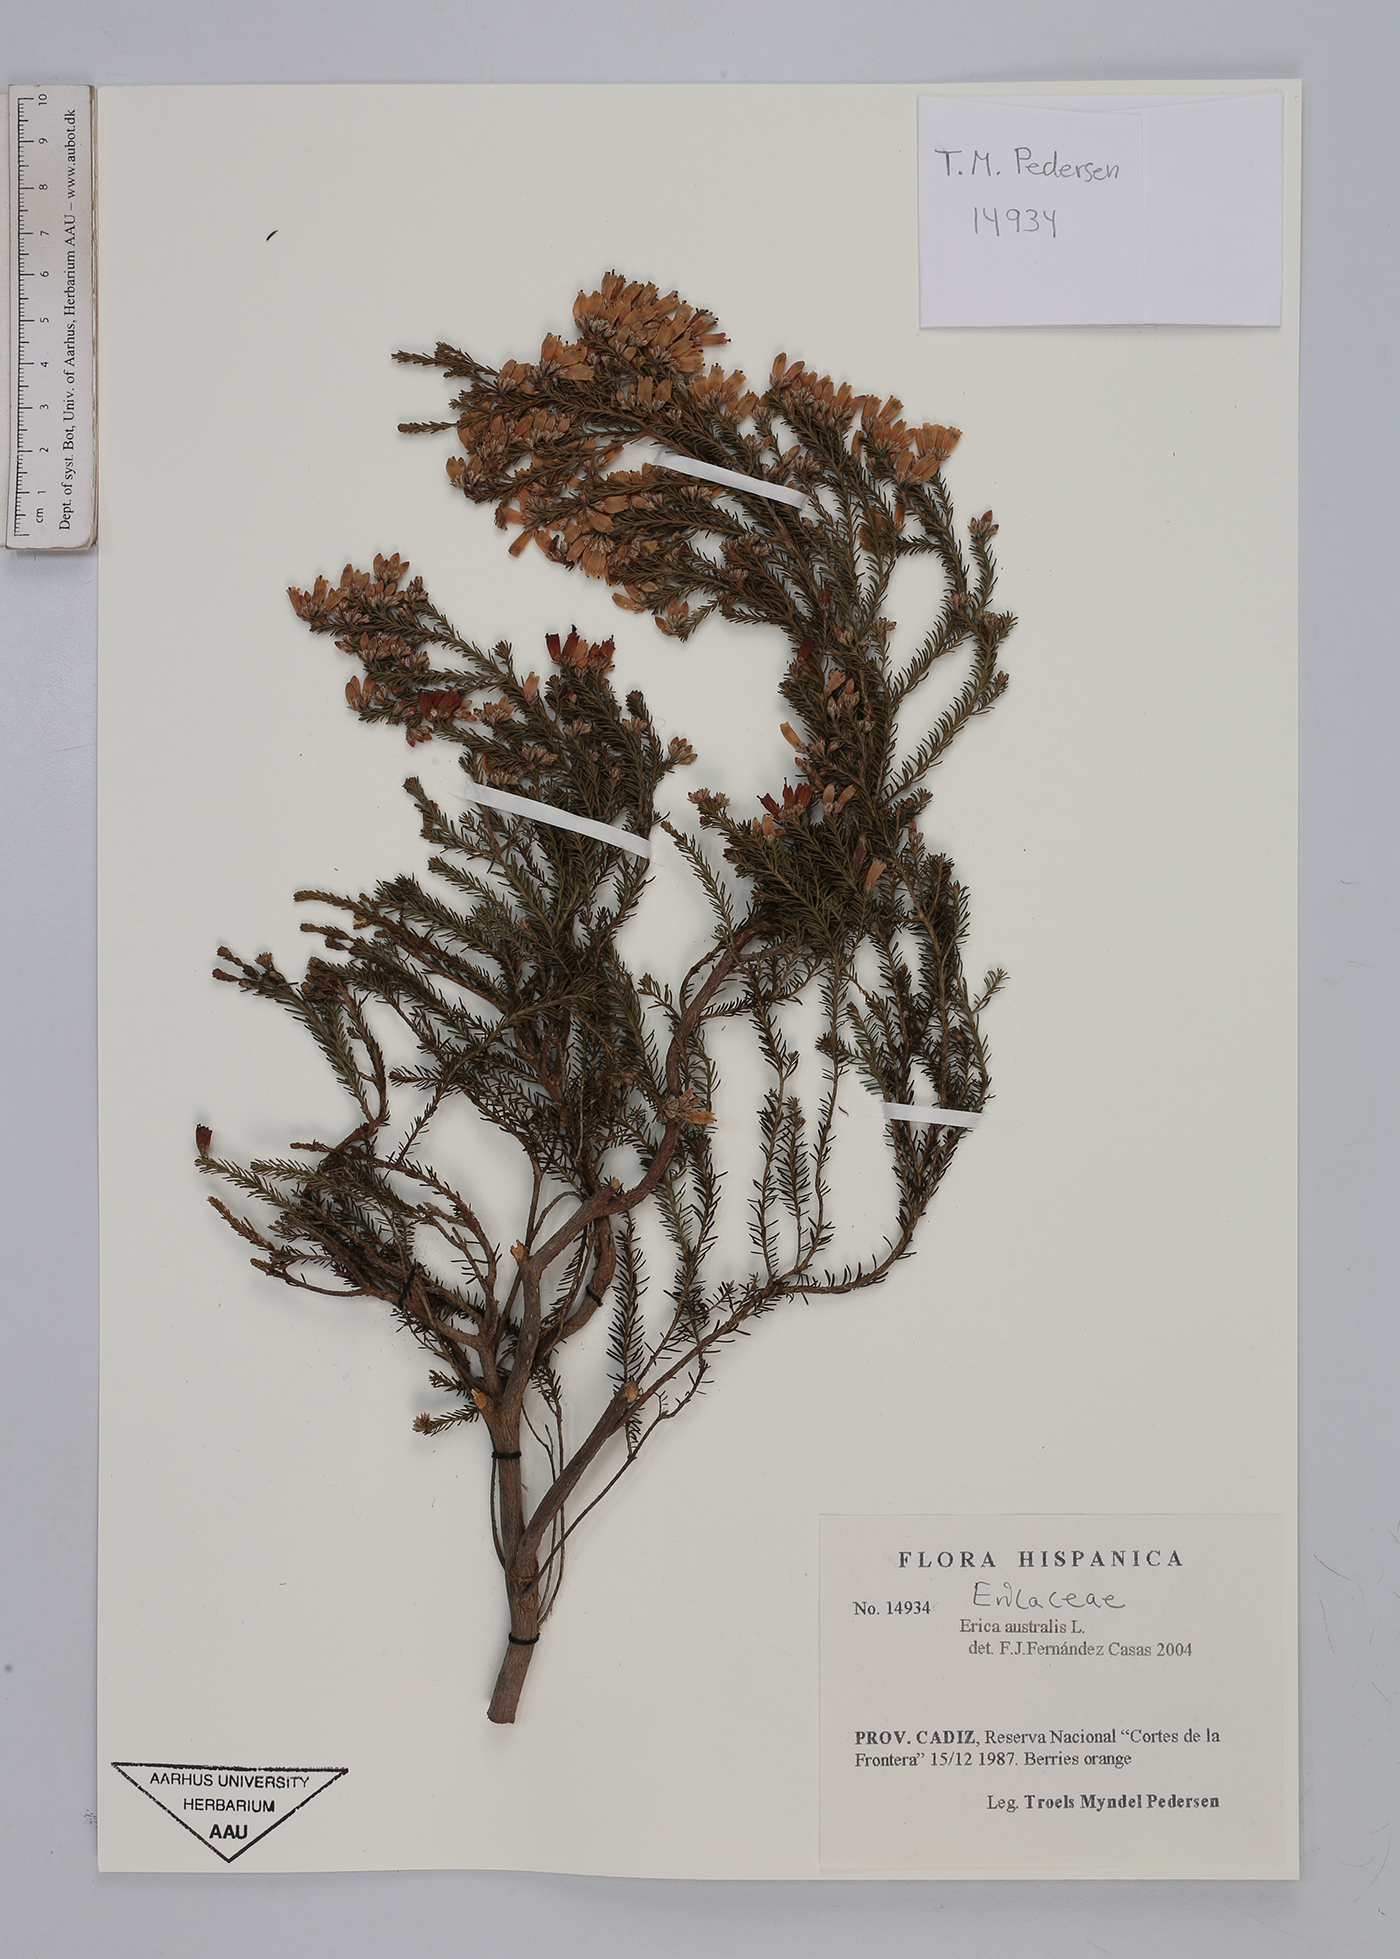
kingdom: Plantae
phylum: Tracheophyta
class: Magnoliopsida
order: Ericales
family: Ericaceae
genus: Erica
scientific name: Erica australis
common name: Spanish heath
